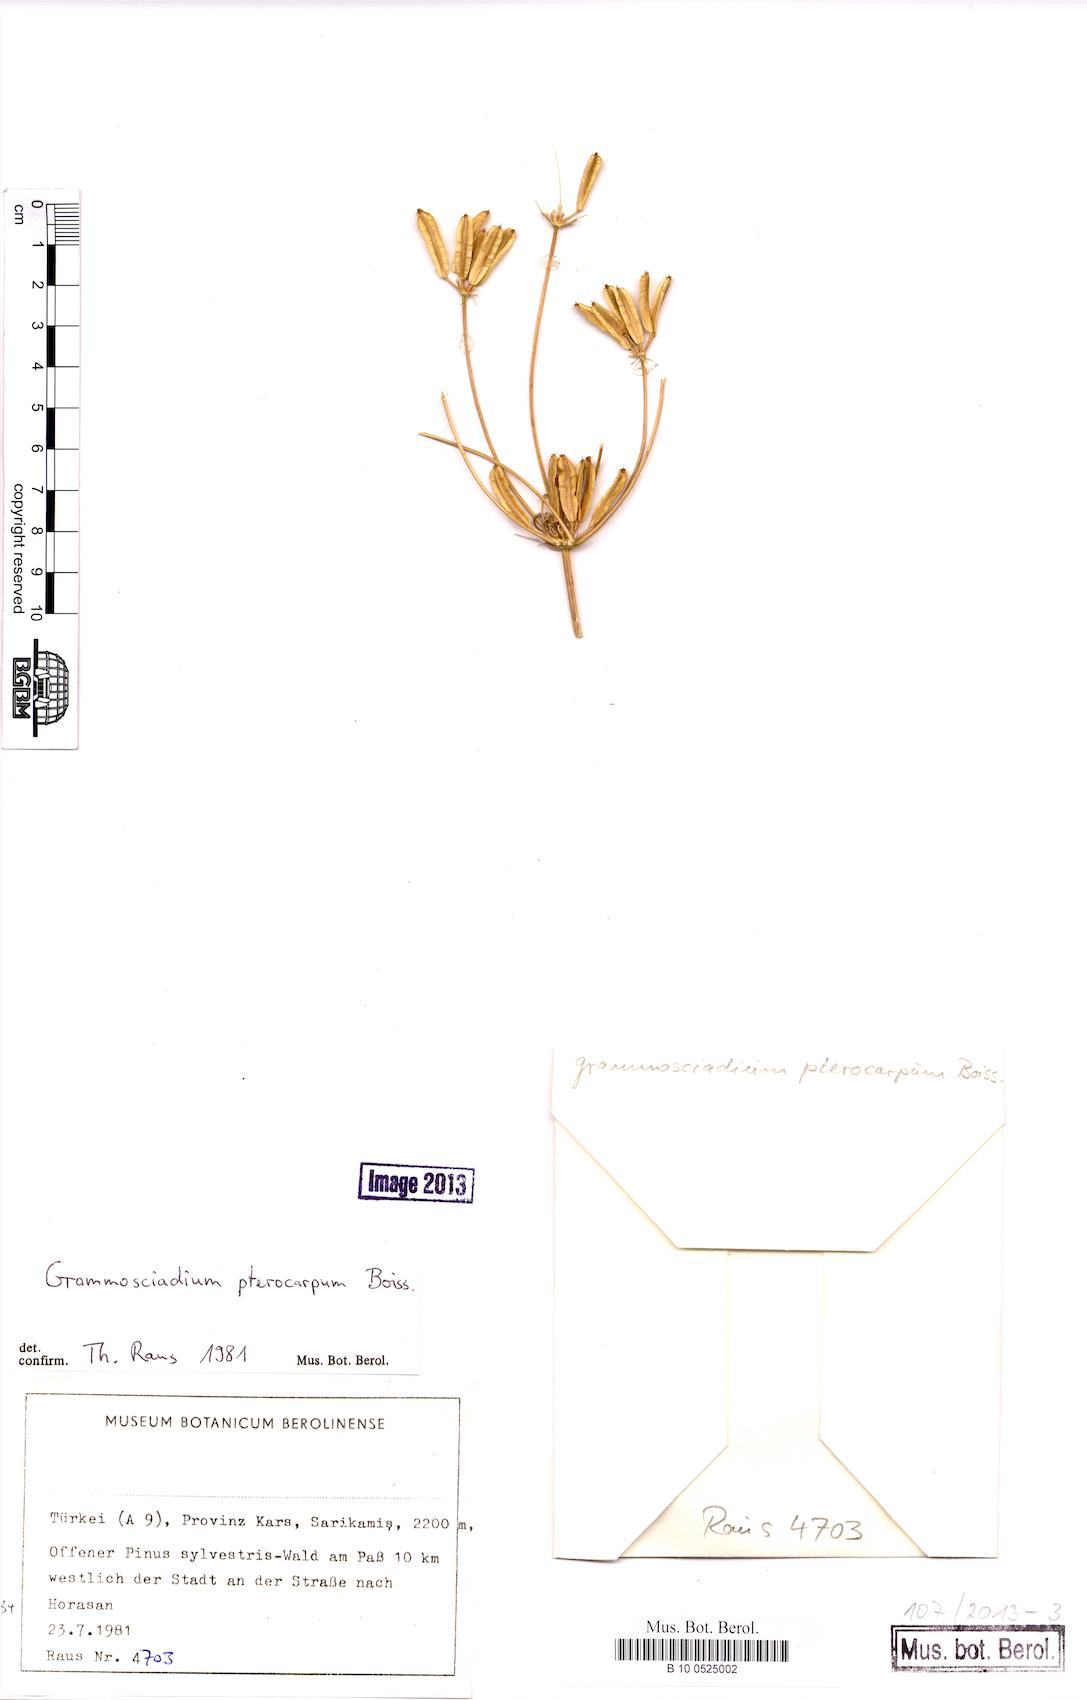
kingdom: Plantae
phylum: Tracheophyta
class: Magnoliopsida
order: Apiales
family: Apiaceae
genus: Caropodium
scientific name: Caropodium pterocarpum
